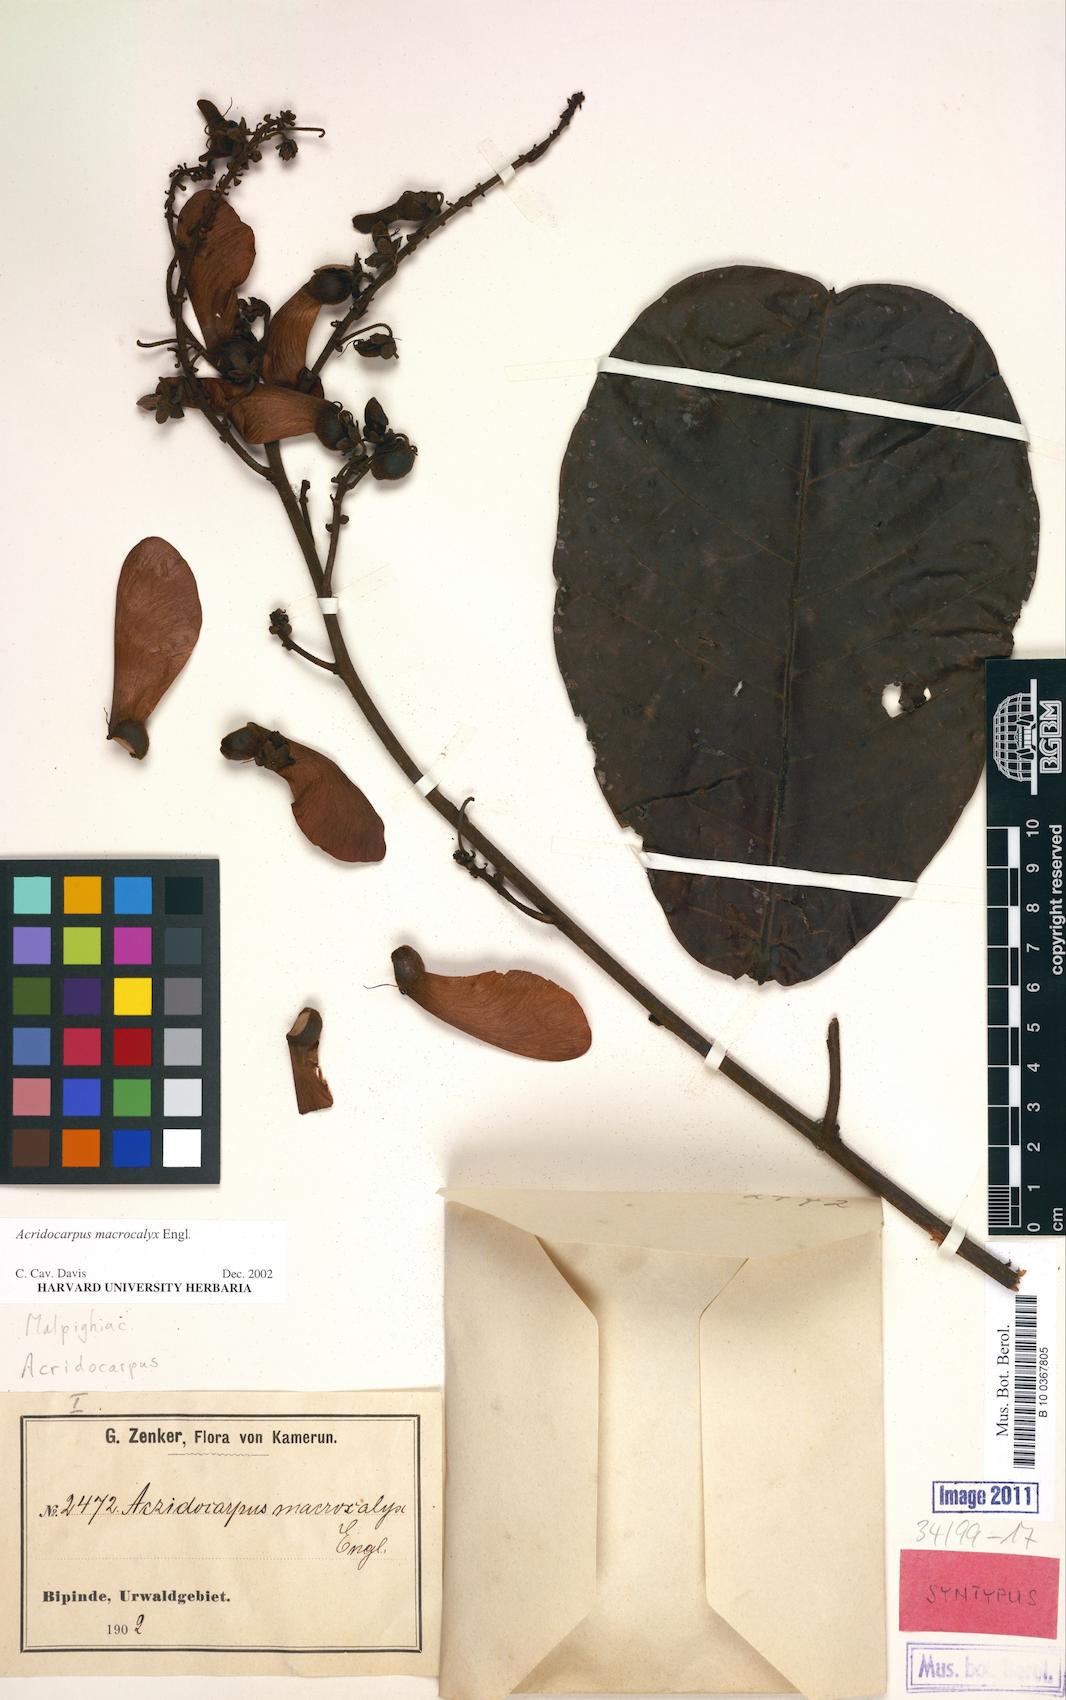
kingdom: Plantae
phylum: Tracheophyta
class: Magnoliopsida
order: Malpighiales
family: Malpighiaceae
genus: Acridocarpus
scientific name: Acridocarpus macrocalyx
